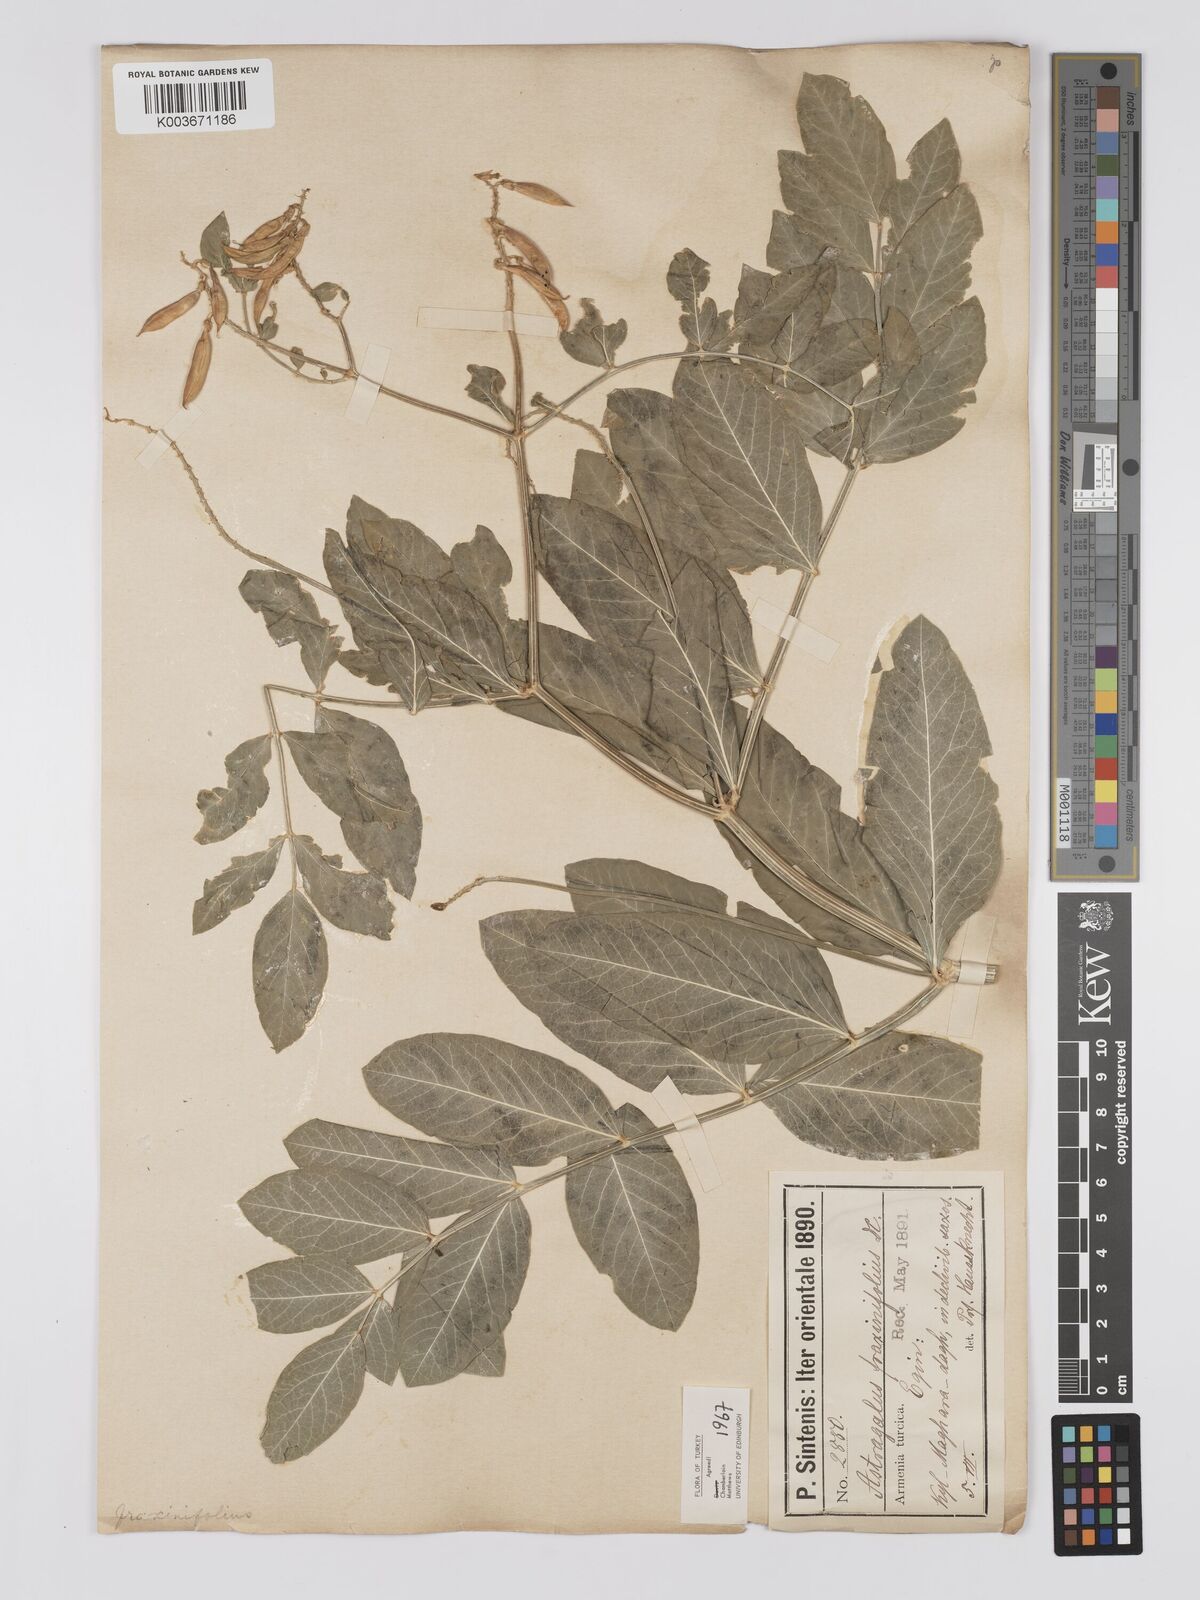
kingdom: Plantae
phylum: Tracheophyta
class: Magnoliopsida
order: Fabales
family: Fabaceae
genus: Astragalus
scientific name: Astragalus fraxinifolius
